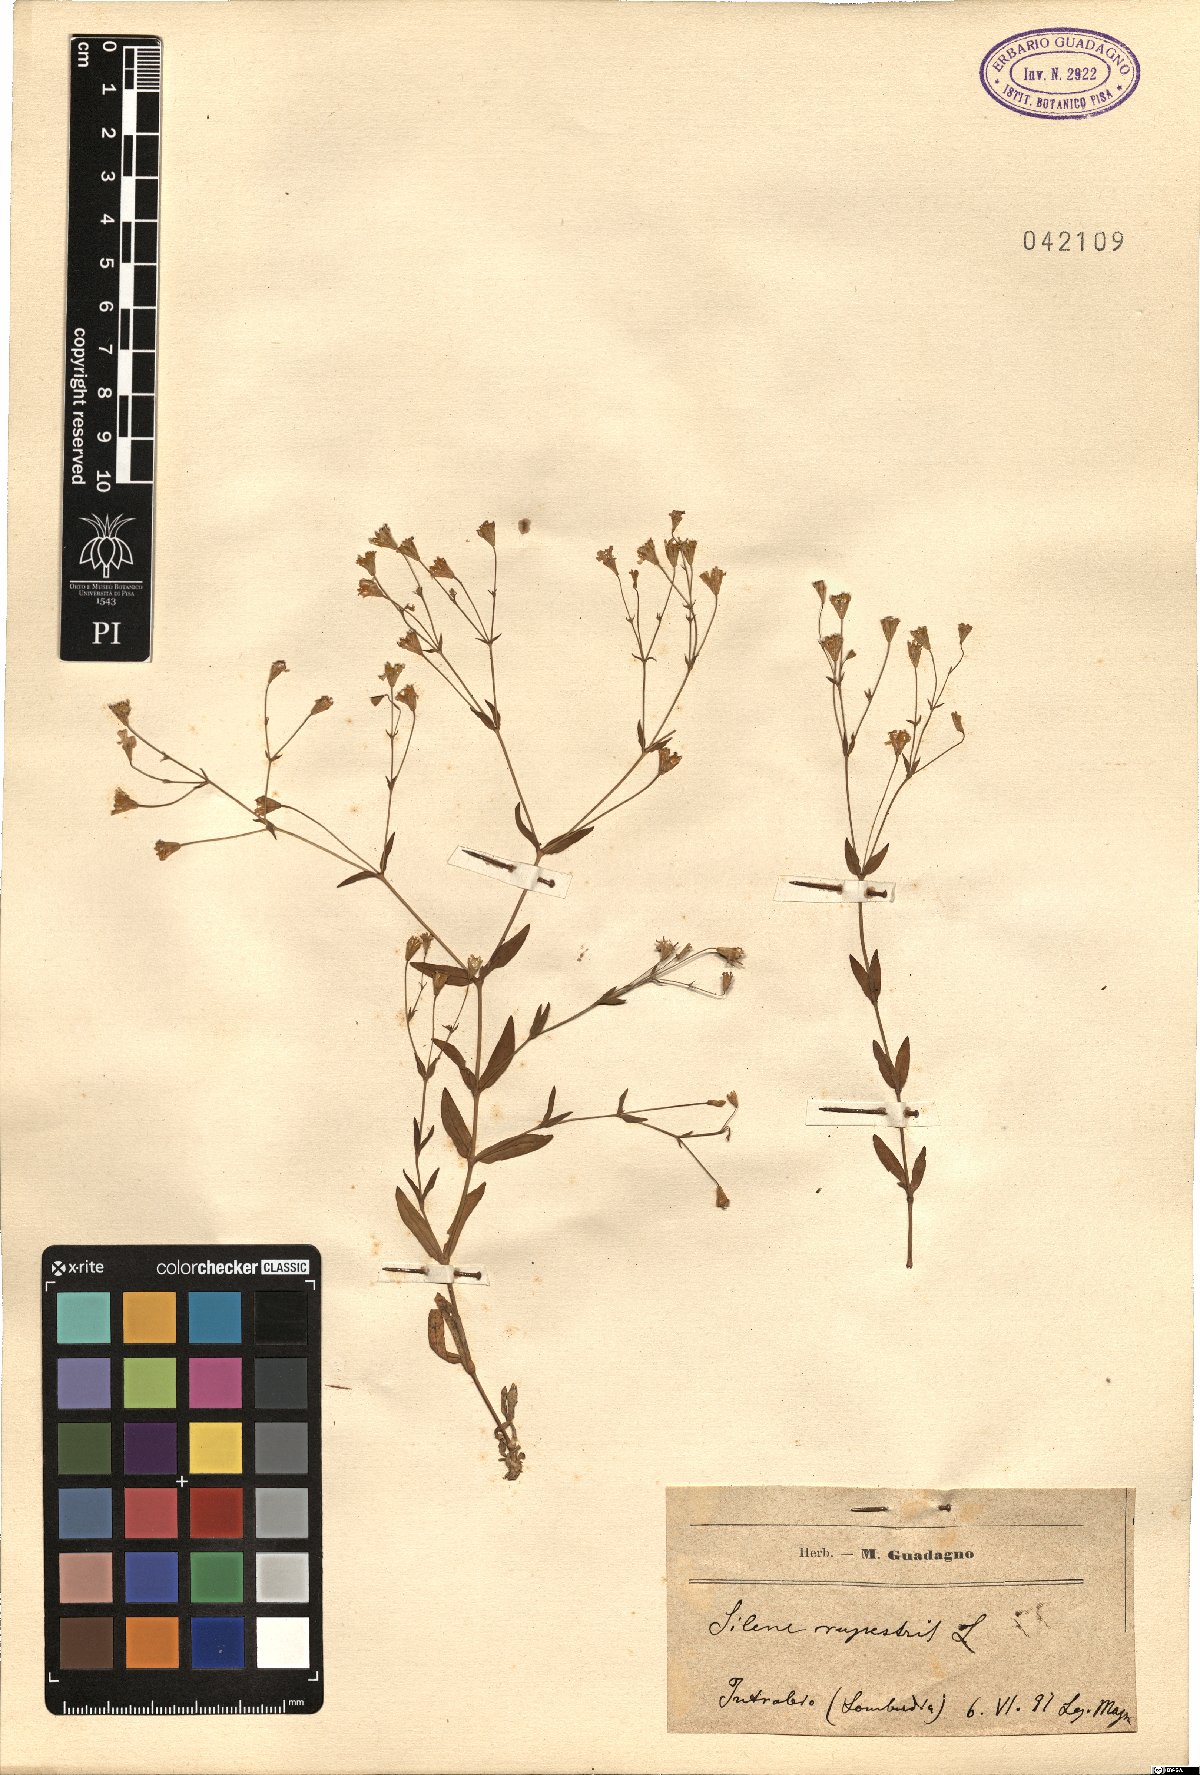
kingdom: Plantae
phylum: Tracheophyta
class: Magnoliopsida
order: Caryophyllales
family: Caryophyllaceae
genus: Atocion
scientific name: Atocion rupestre
